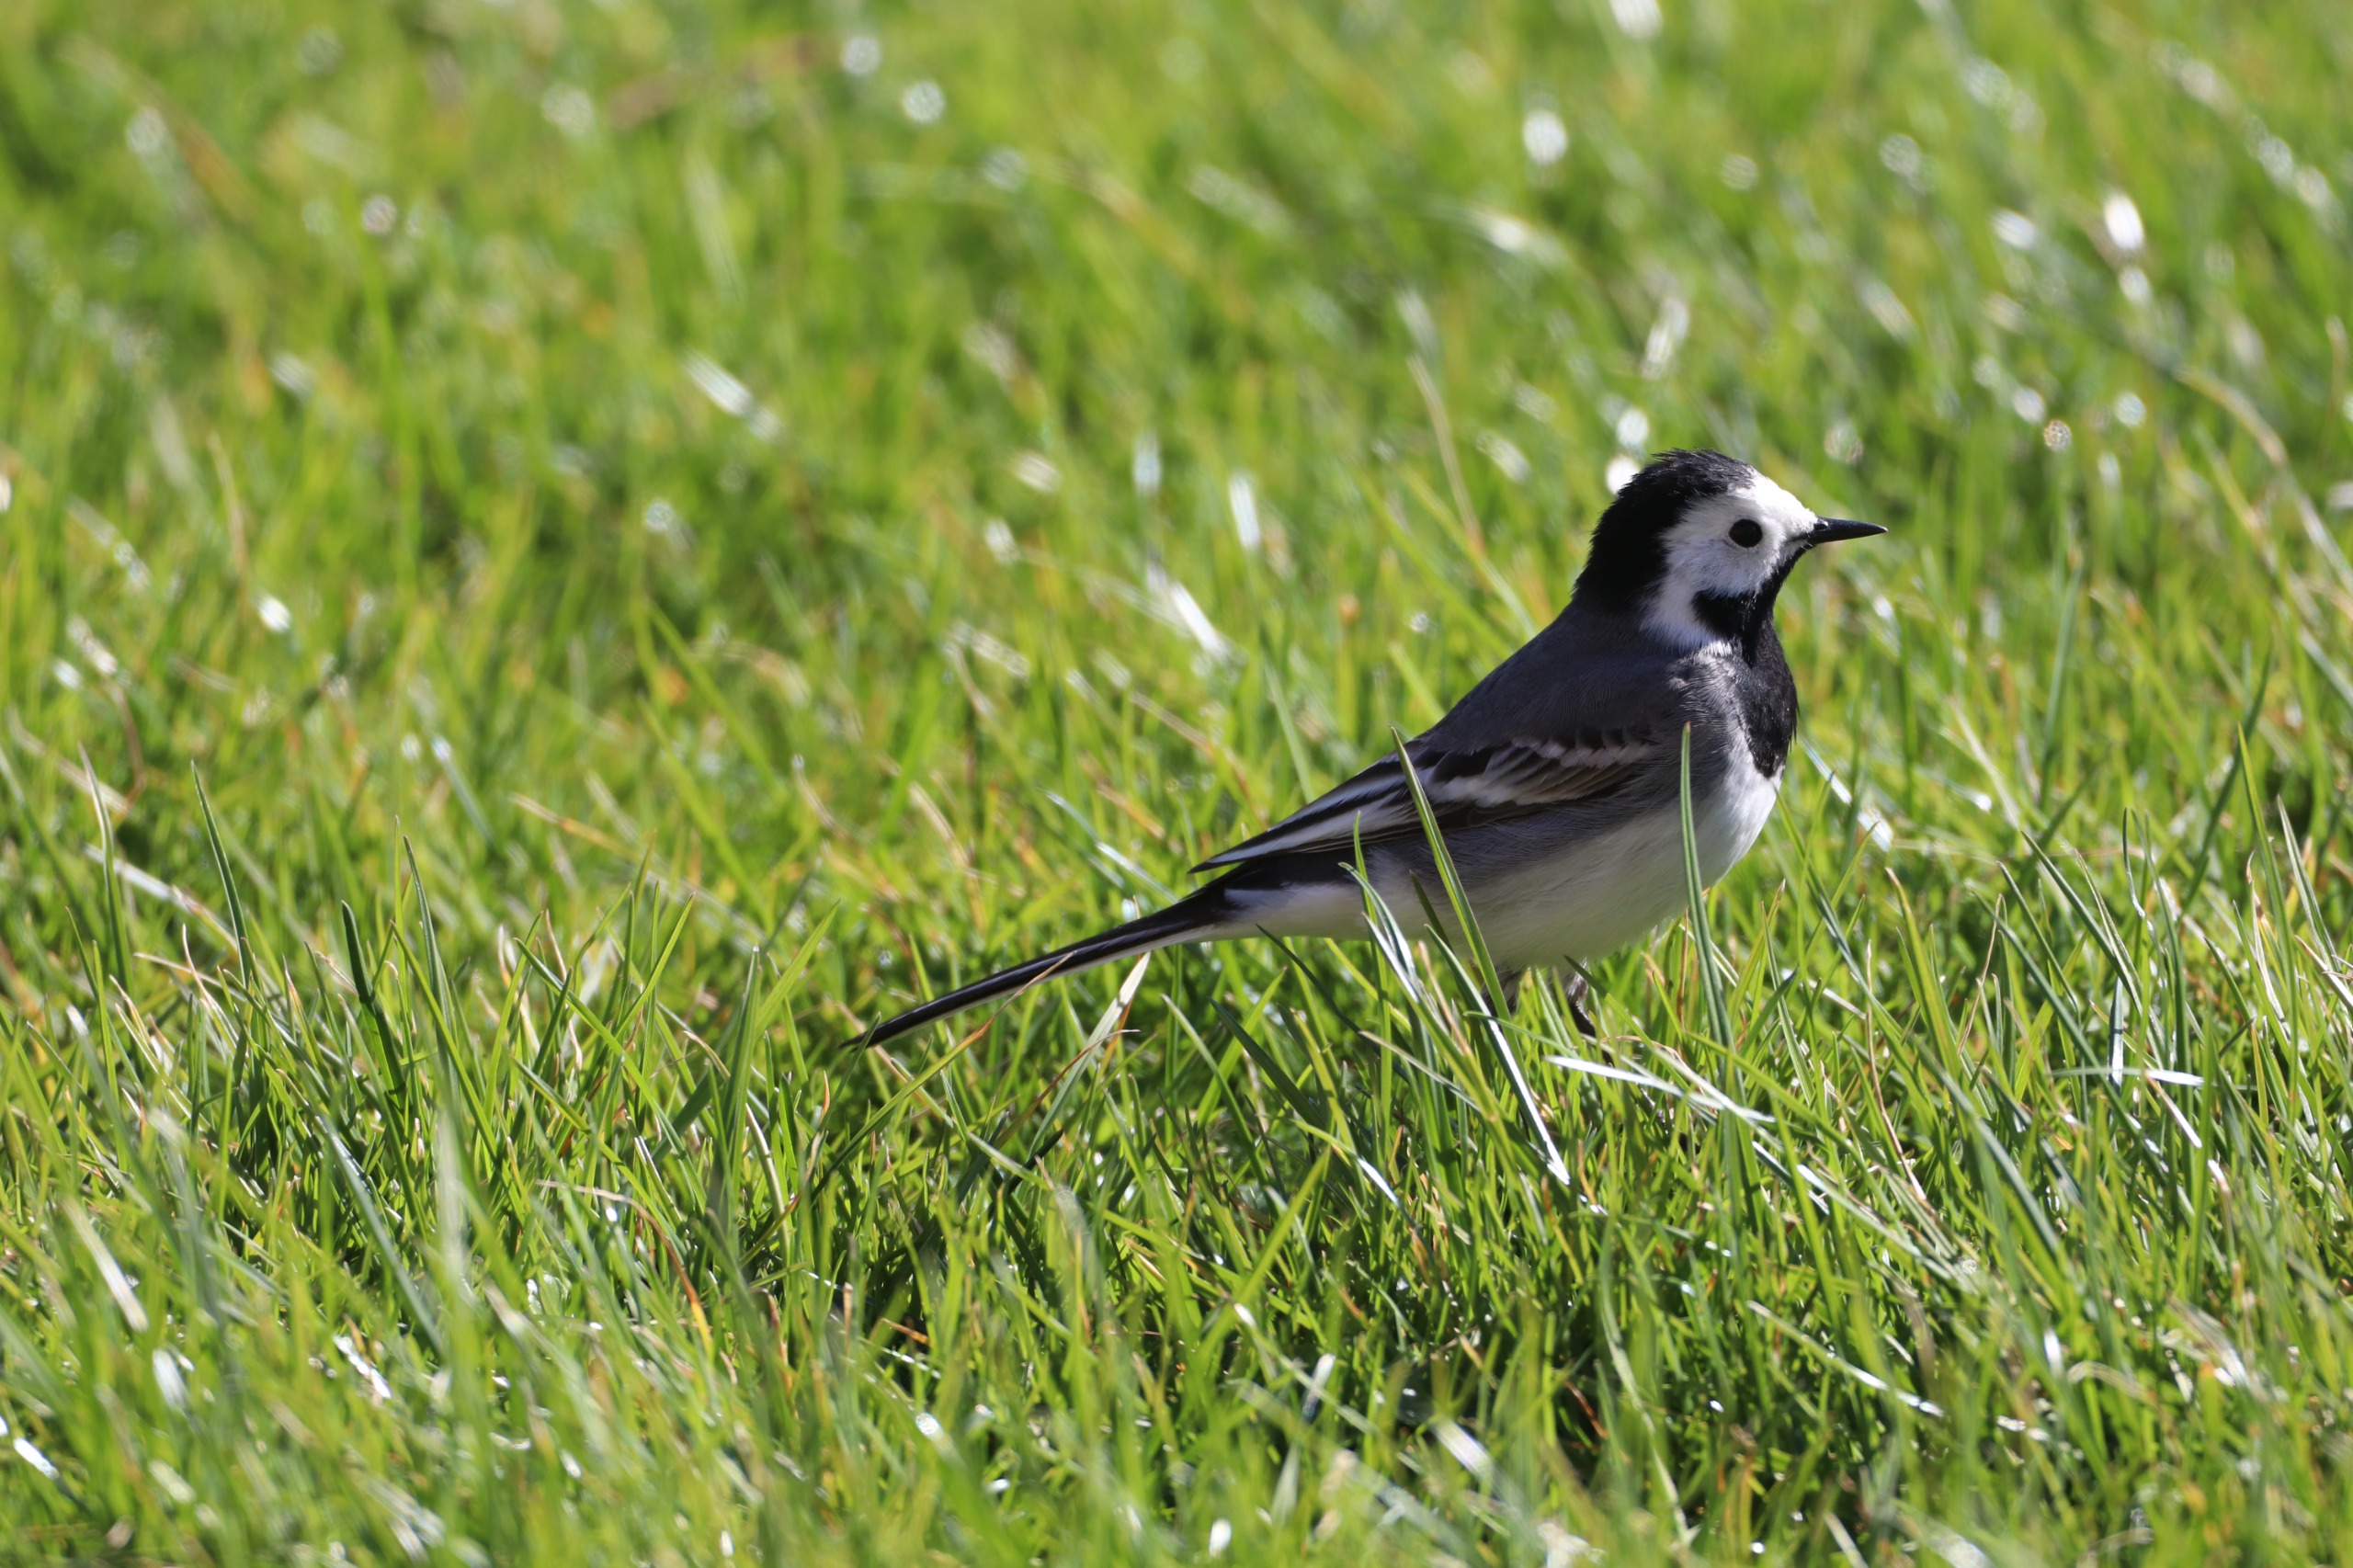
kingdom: Animalia
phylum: Chordata
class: Aves
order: Passeriformes
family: Motacillidae
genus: Motacilla
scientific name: Motacilla alba
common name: Hvid vipstjert
